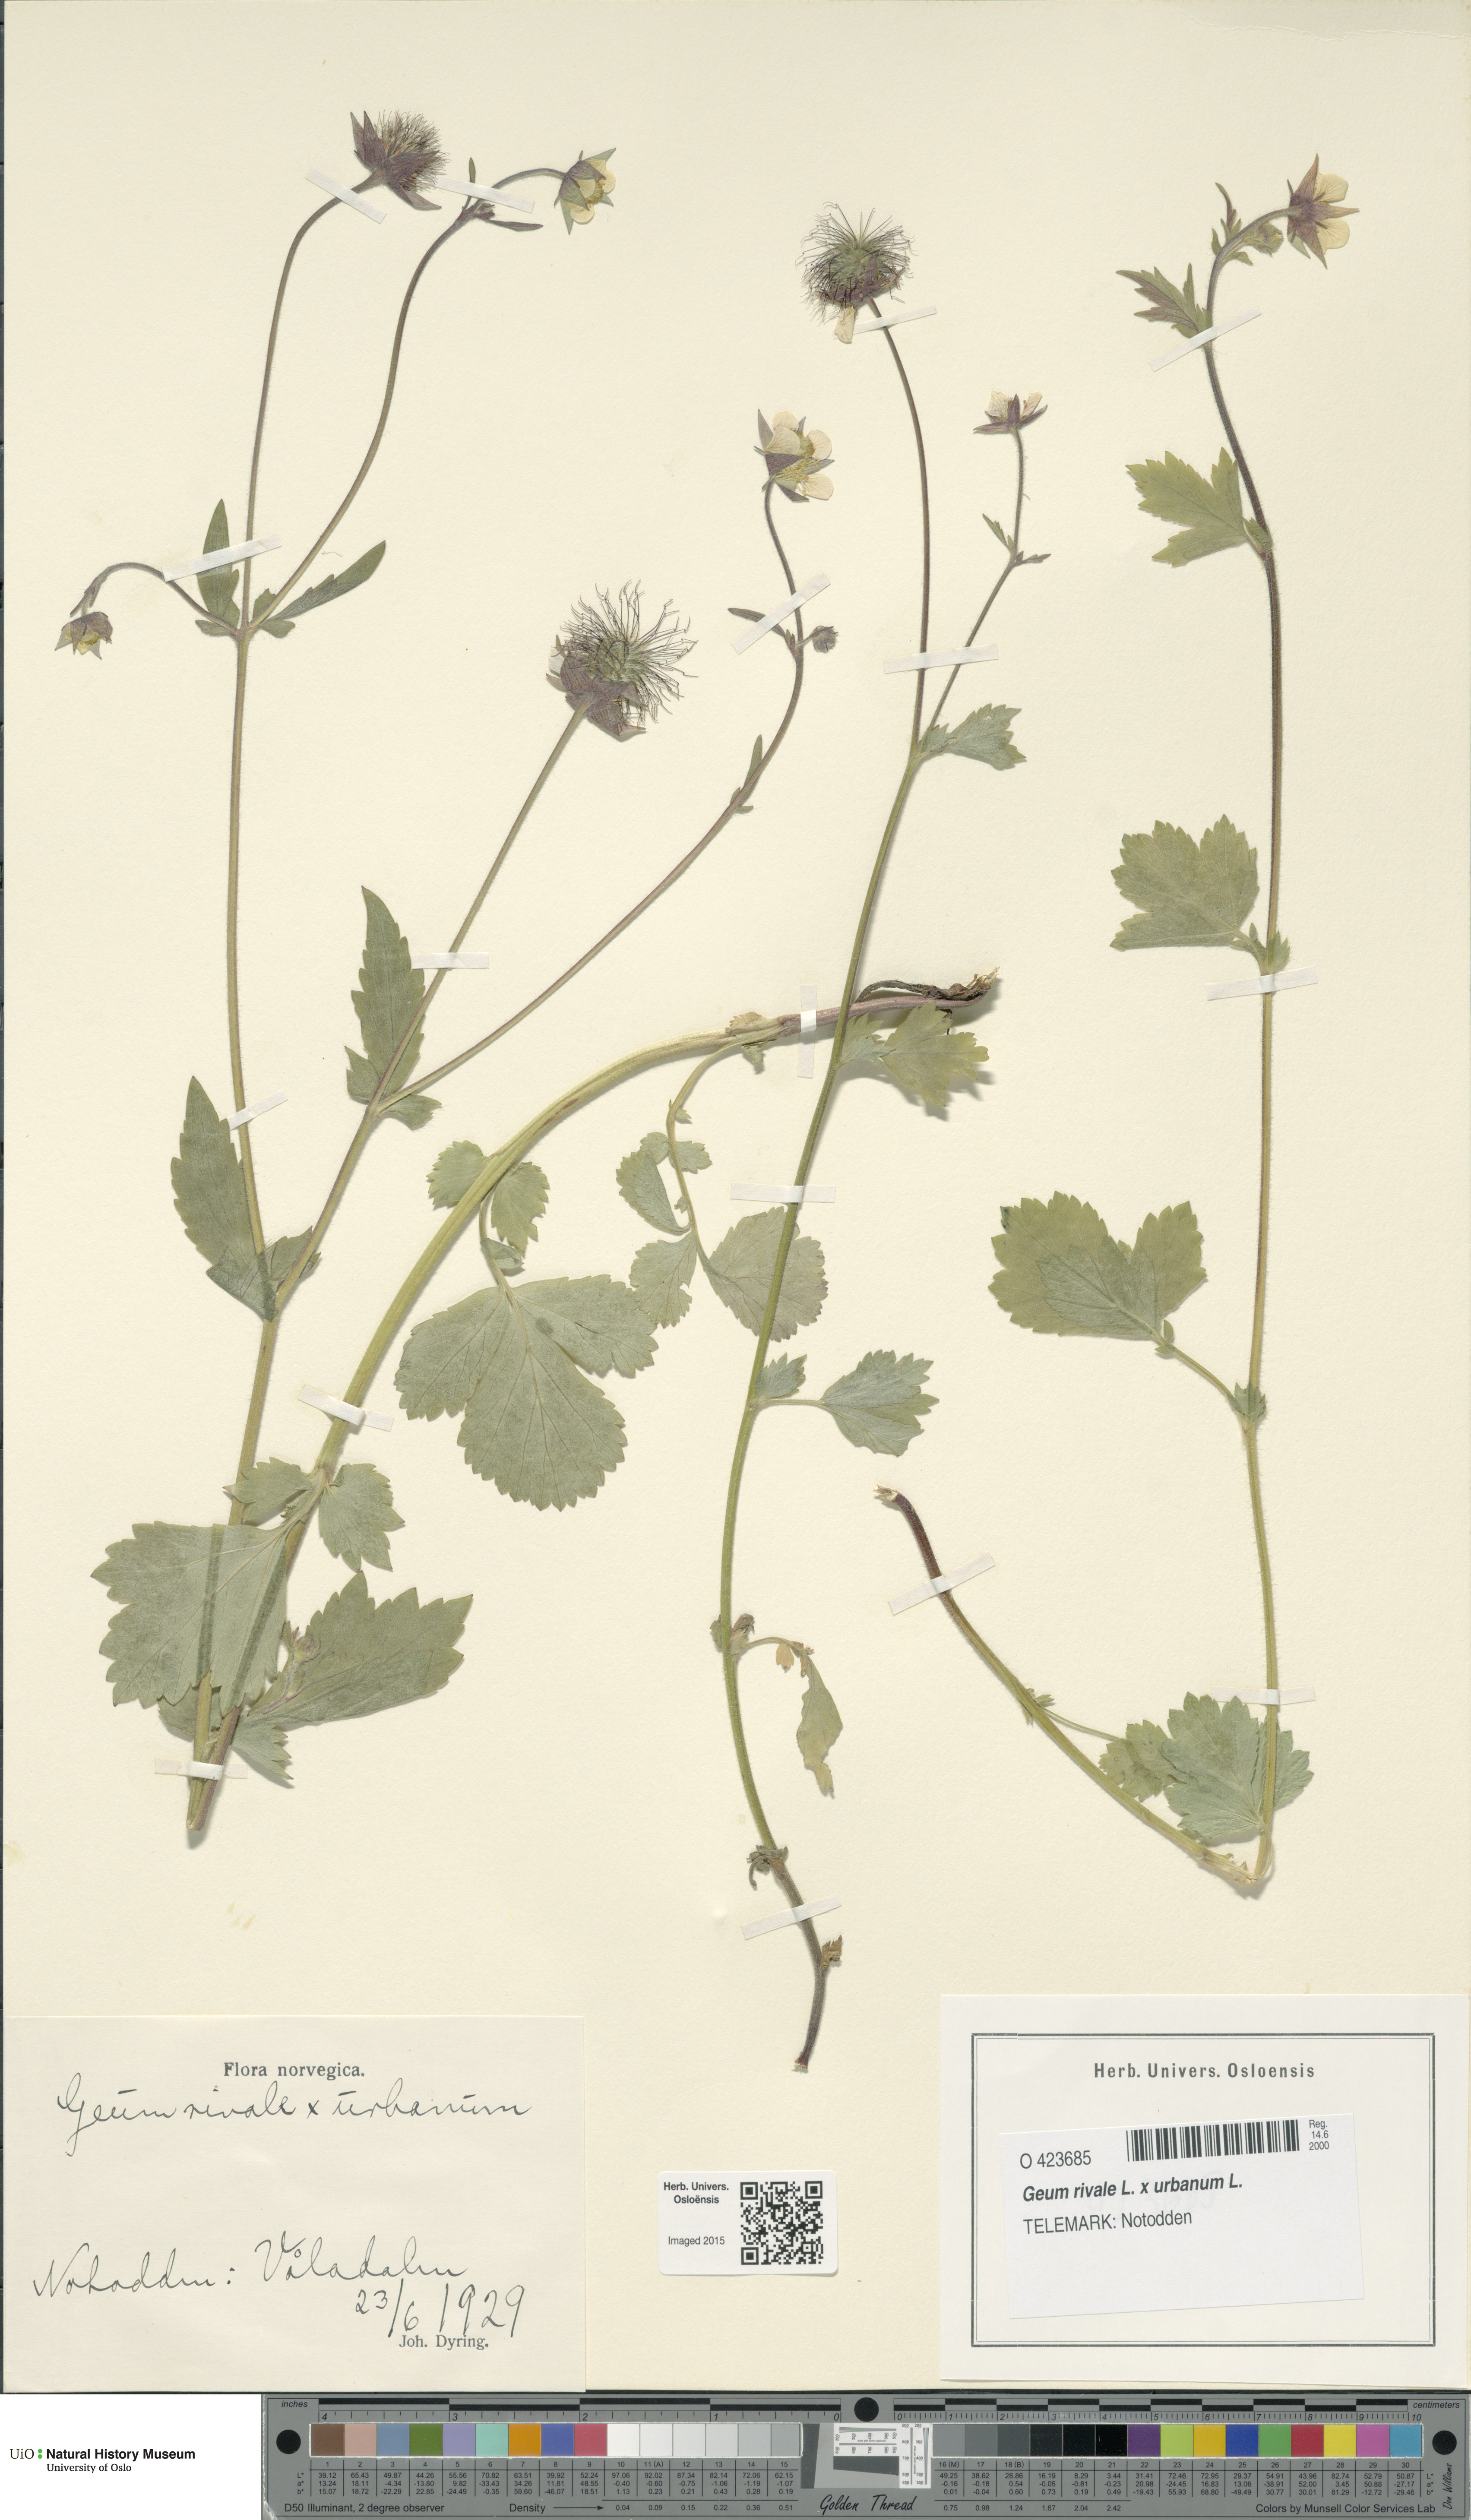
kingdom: Plantae
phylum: Tracheophyta
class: Magnoliopsida
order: Rosales
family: Rosaceae
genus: Geum
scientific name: Geum
